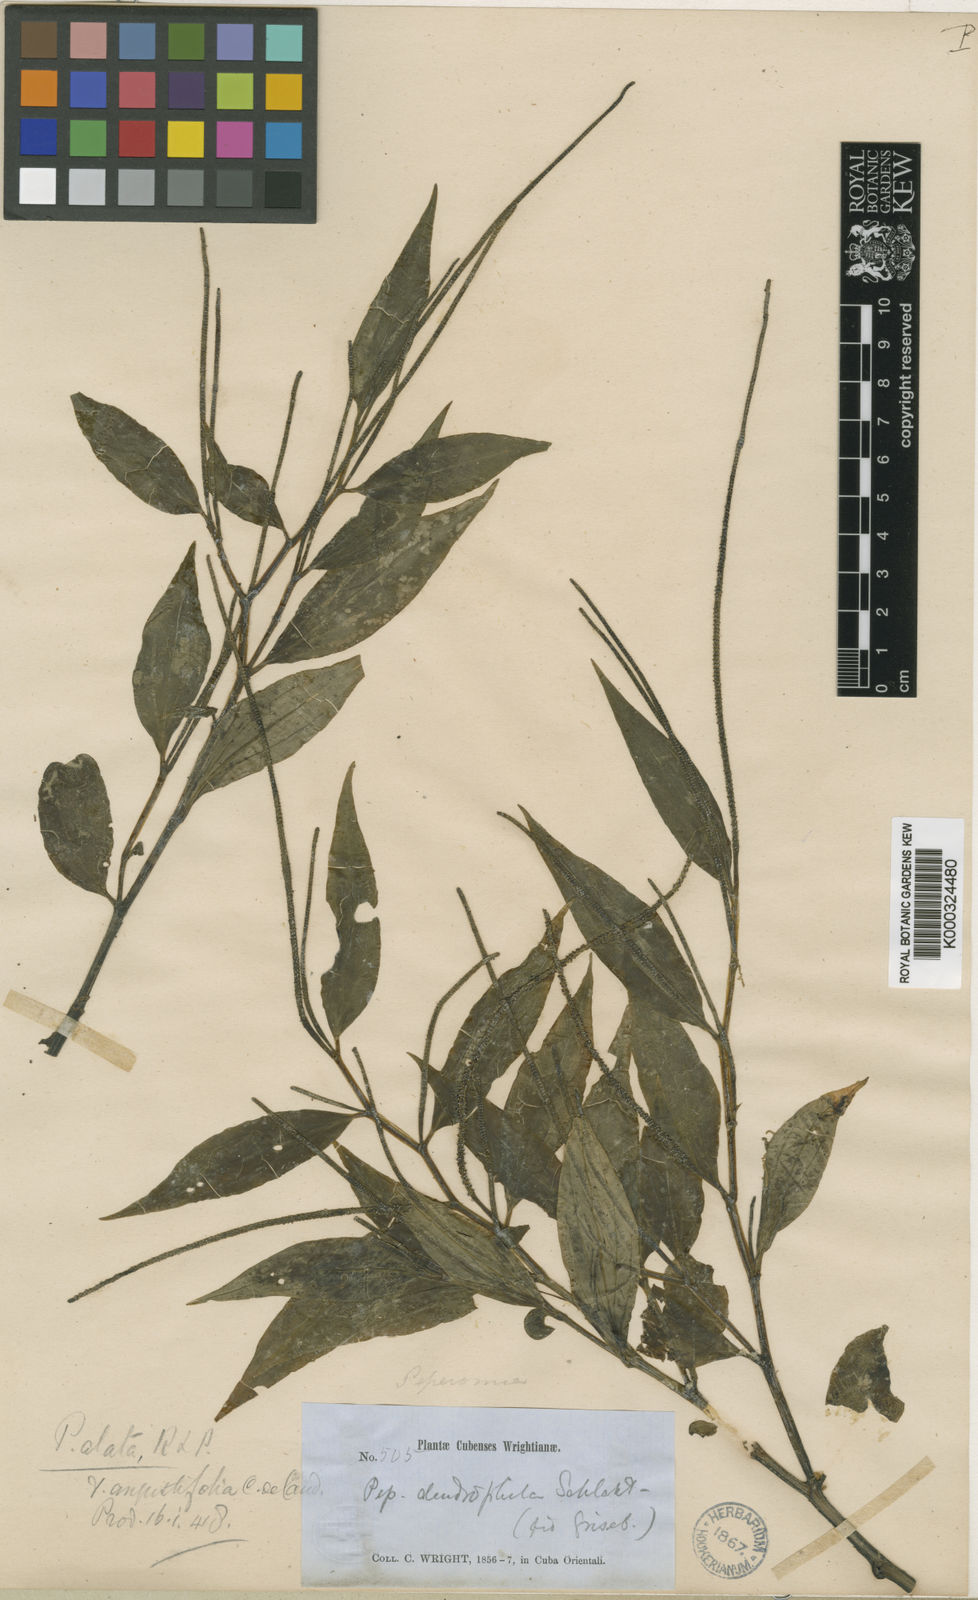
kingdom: Plantae
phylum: Tracheophyta
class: Magnoliopsida
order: Piperales
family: Piperaceae
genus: Peperomia
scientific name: Peperomia alata
